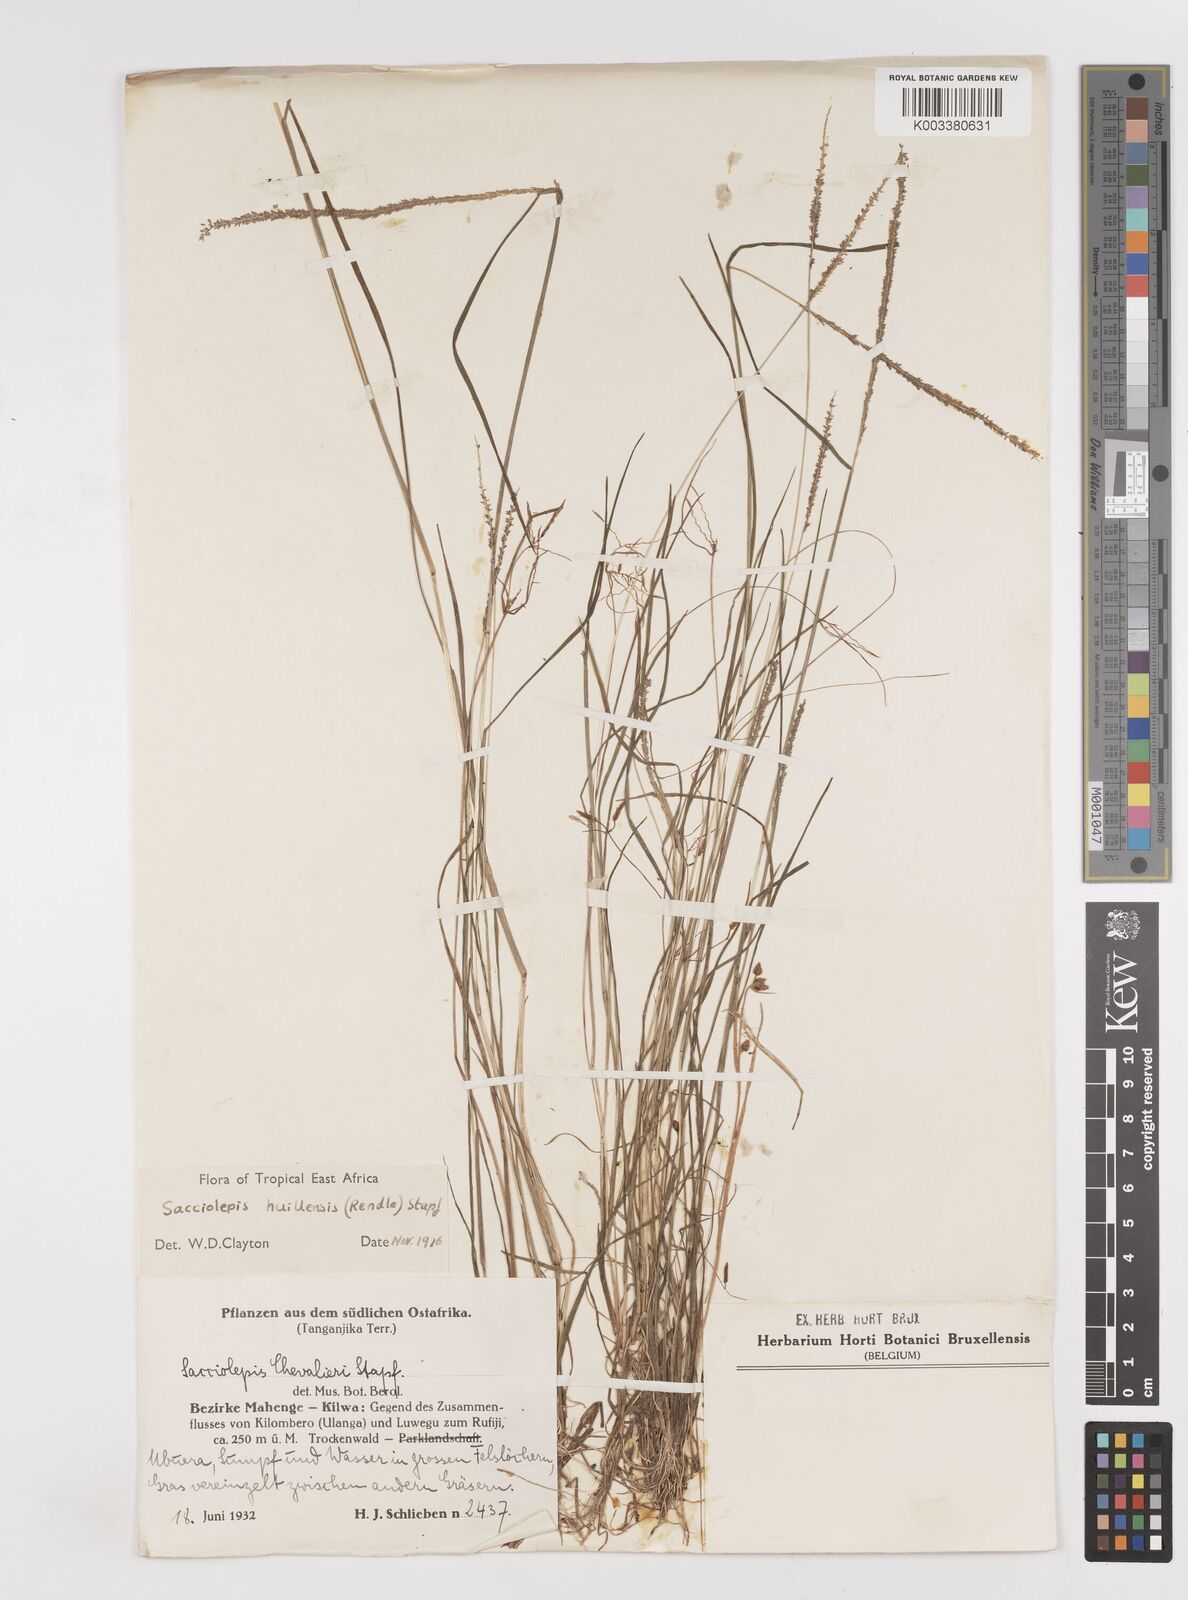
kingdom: Plantae
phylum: Tracheophyta
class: Liliopsida
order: Poales
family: Poaceae
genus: Sacciolepis
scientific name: Sacciolepis myosuroides
